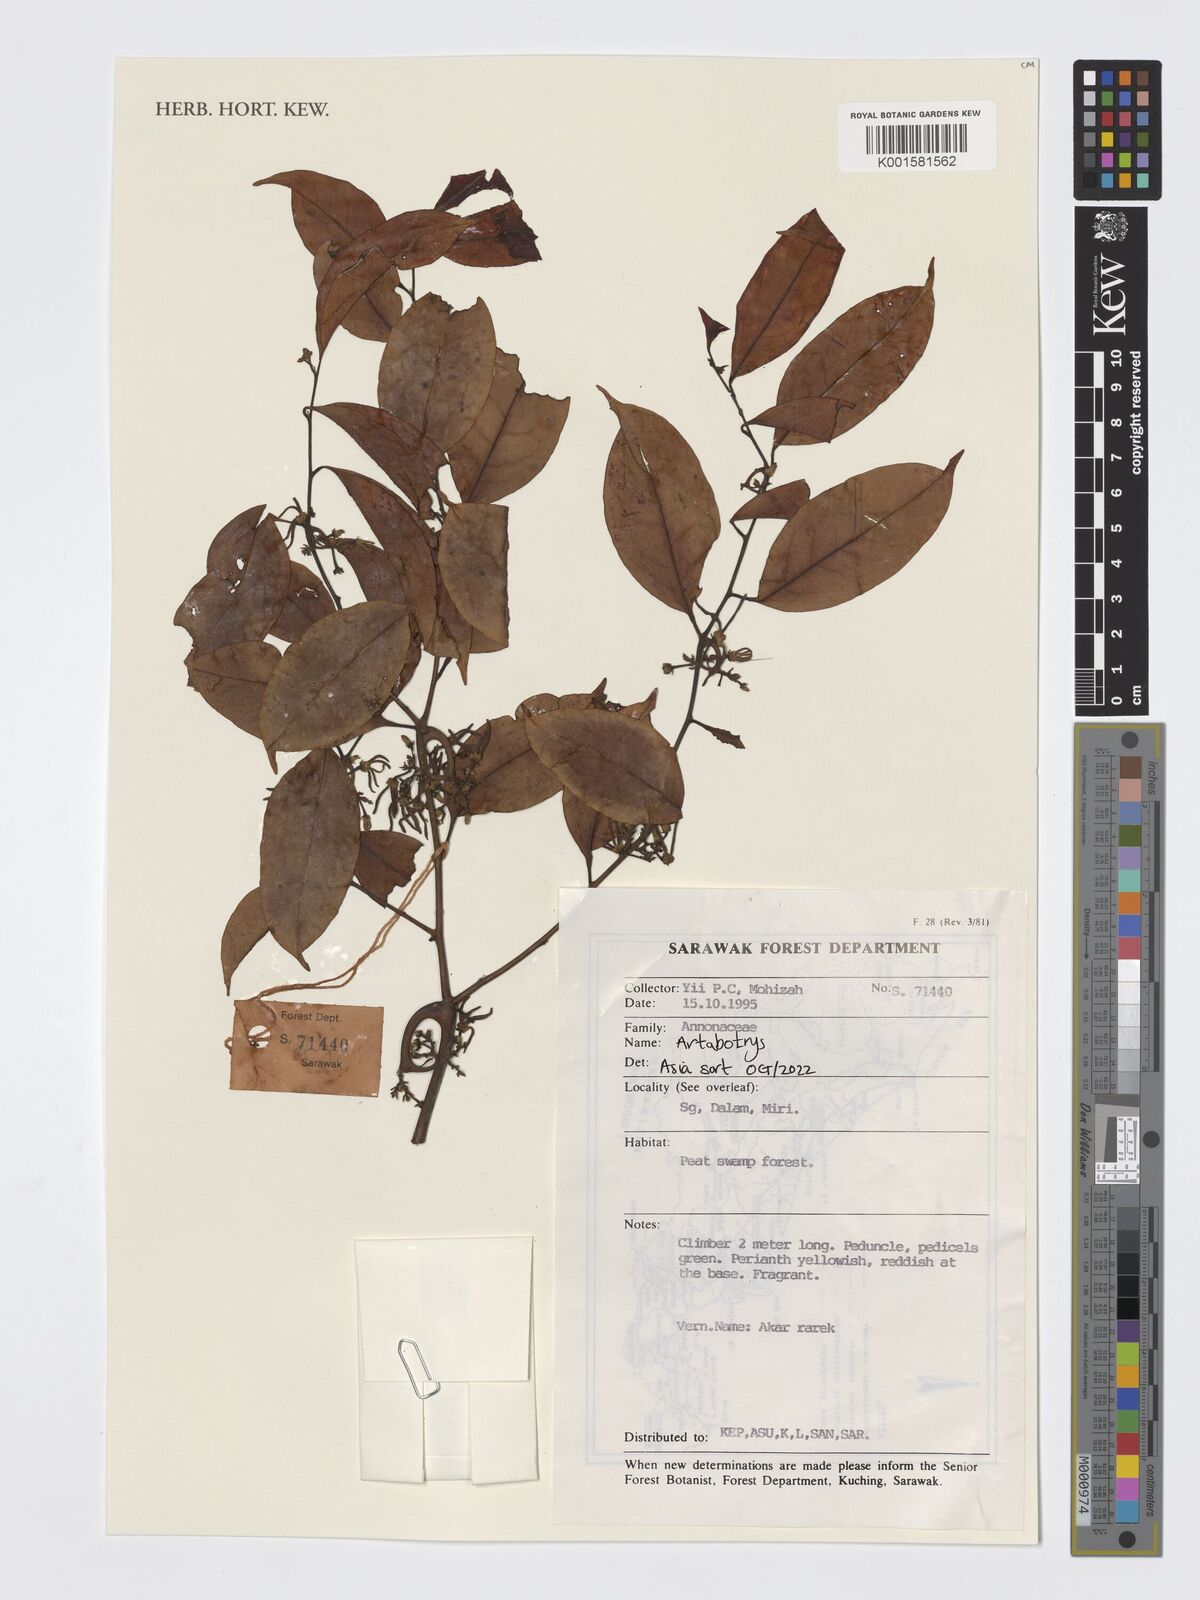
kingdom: Plantae
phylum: Tracheophyta
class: Magnoliopsida
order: Magnoliales
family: Annonaceae
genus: Artabotrys
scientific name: Artabotrys
